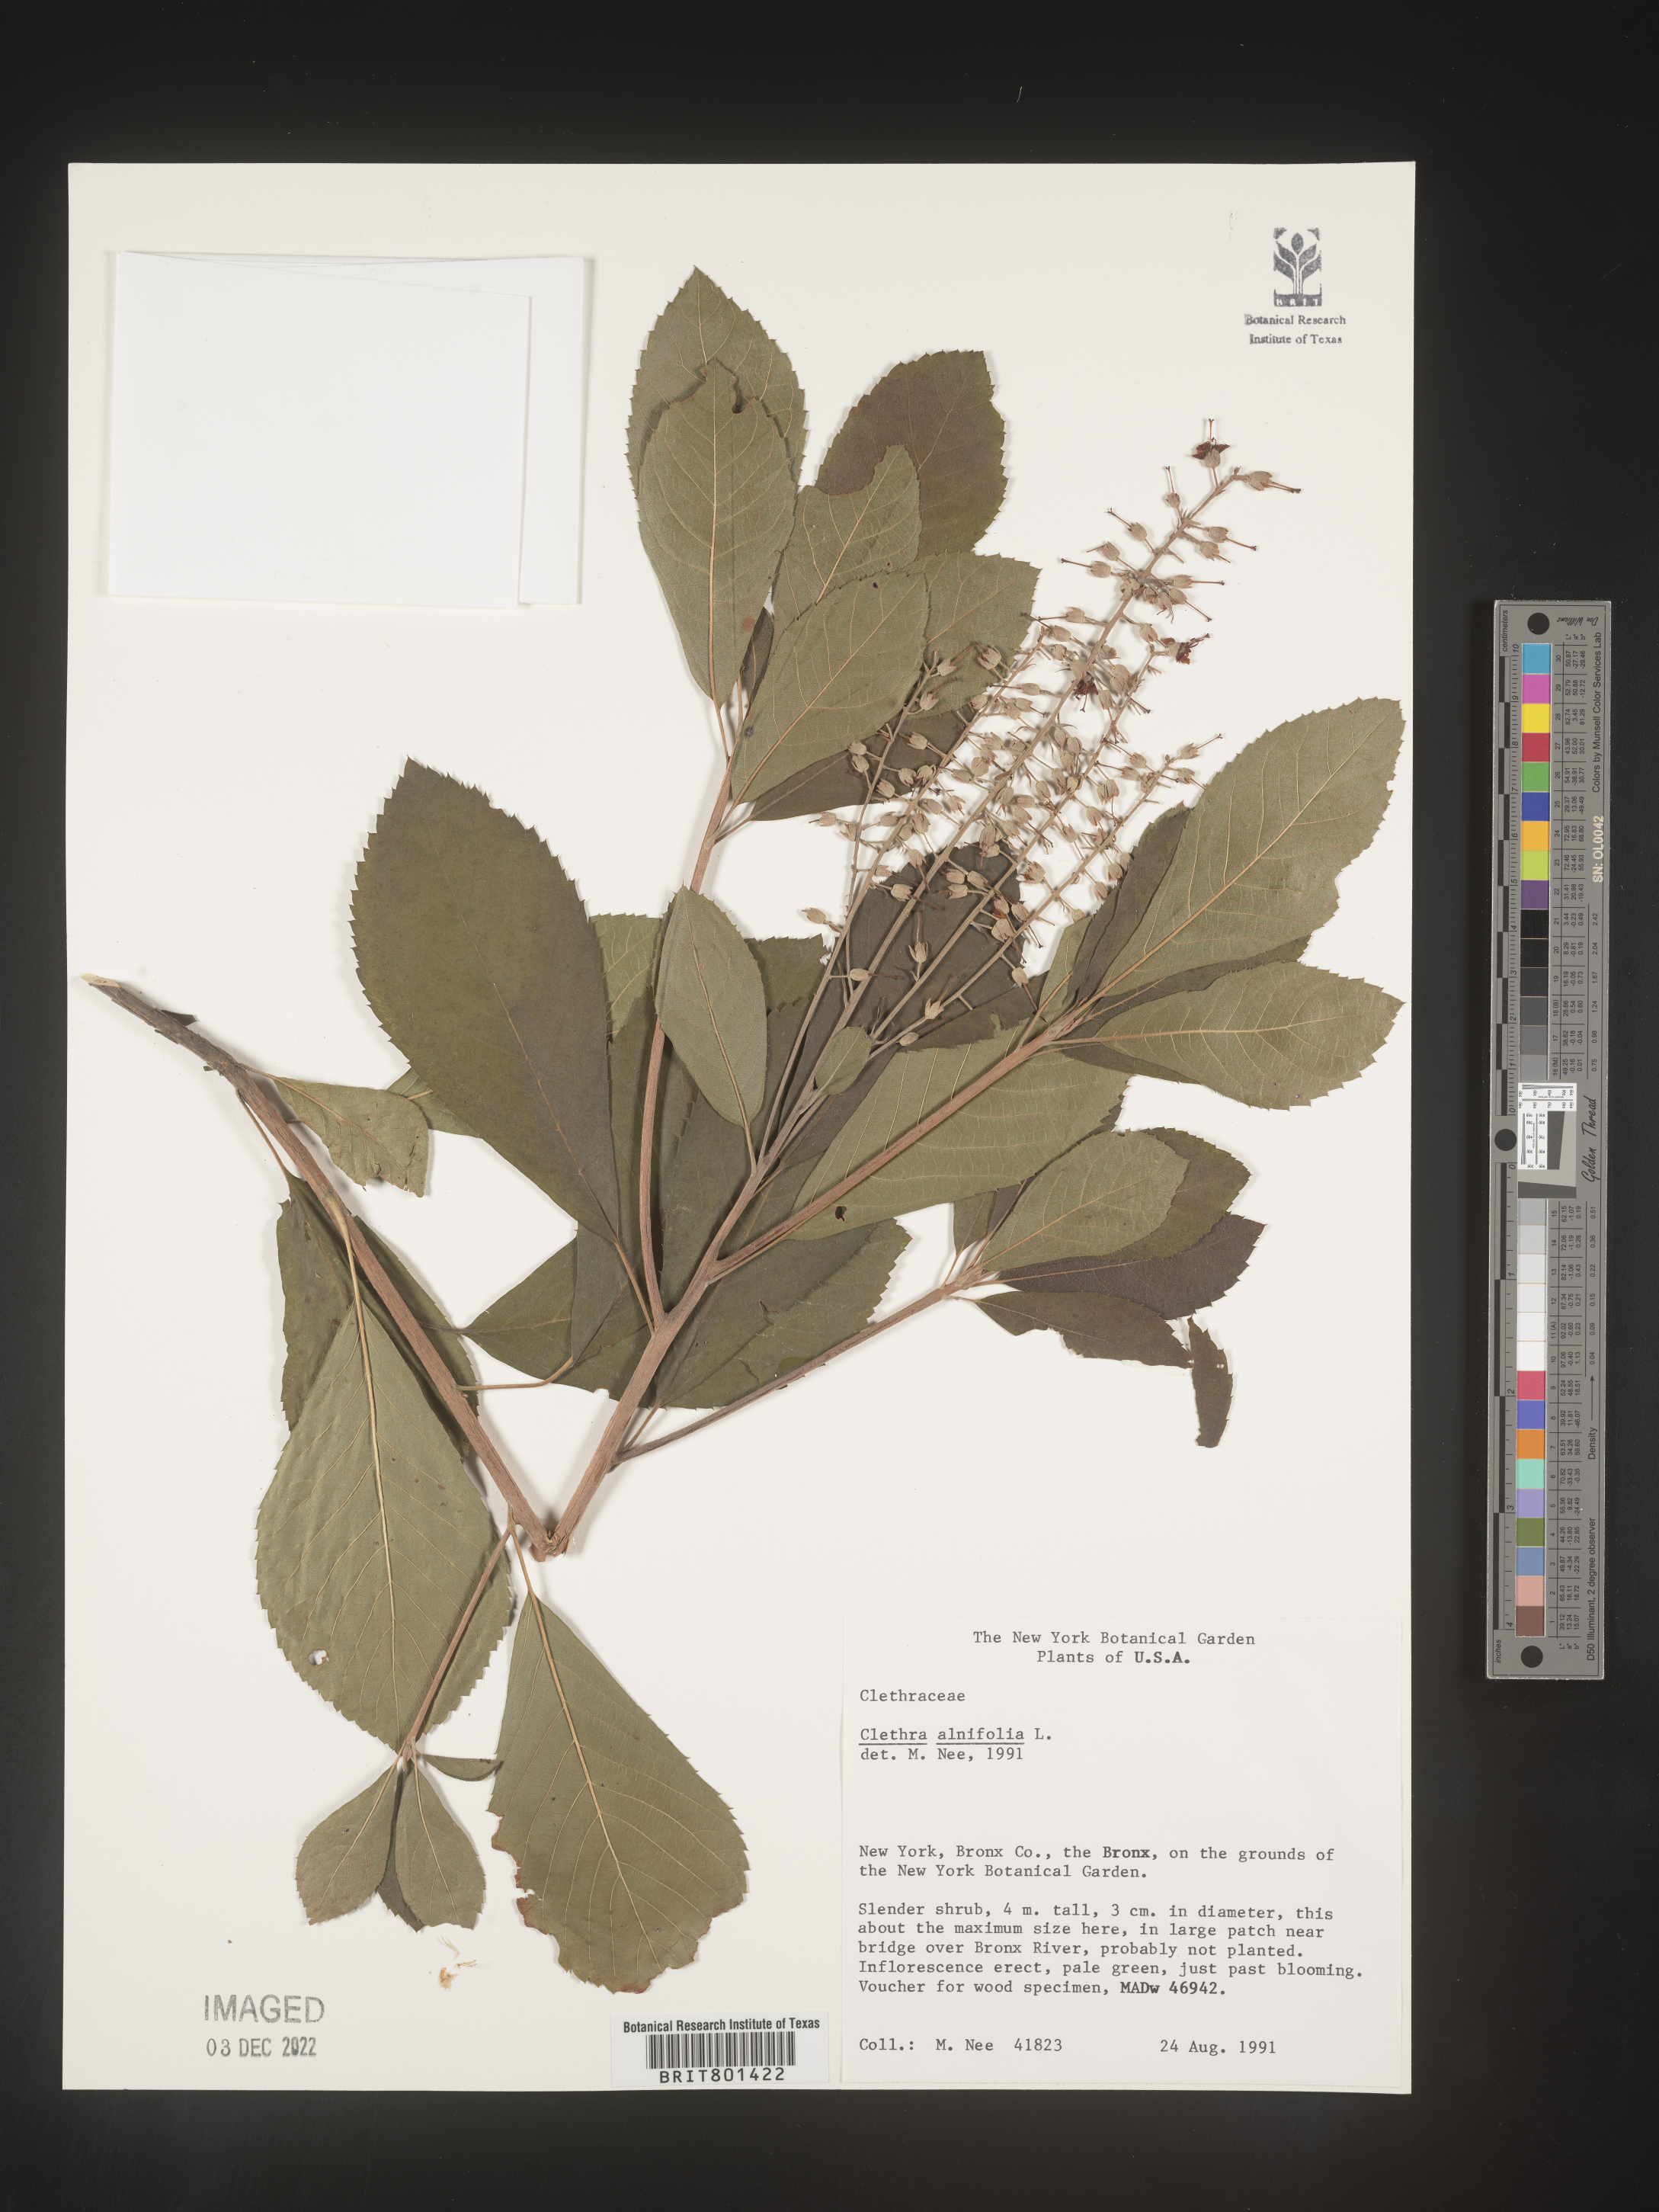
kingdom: Plantae
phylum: Tracheophyta
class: Magnoliopsida
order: Ericales
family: Clethraceae
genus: Clethra
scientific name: Clethra alnifolia
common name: Sweet pepperbush
